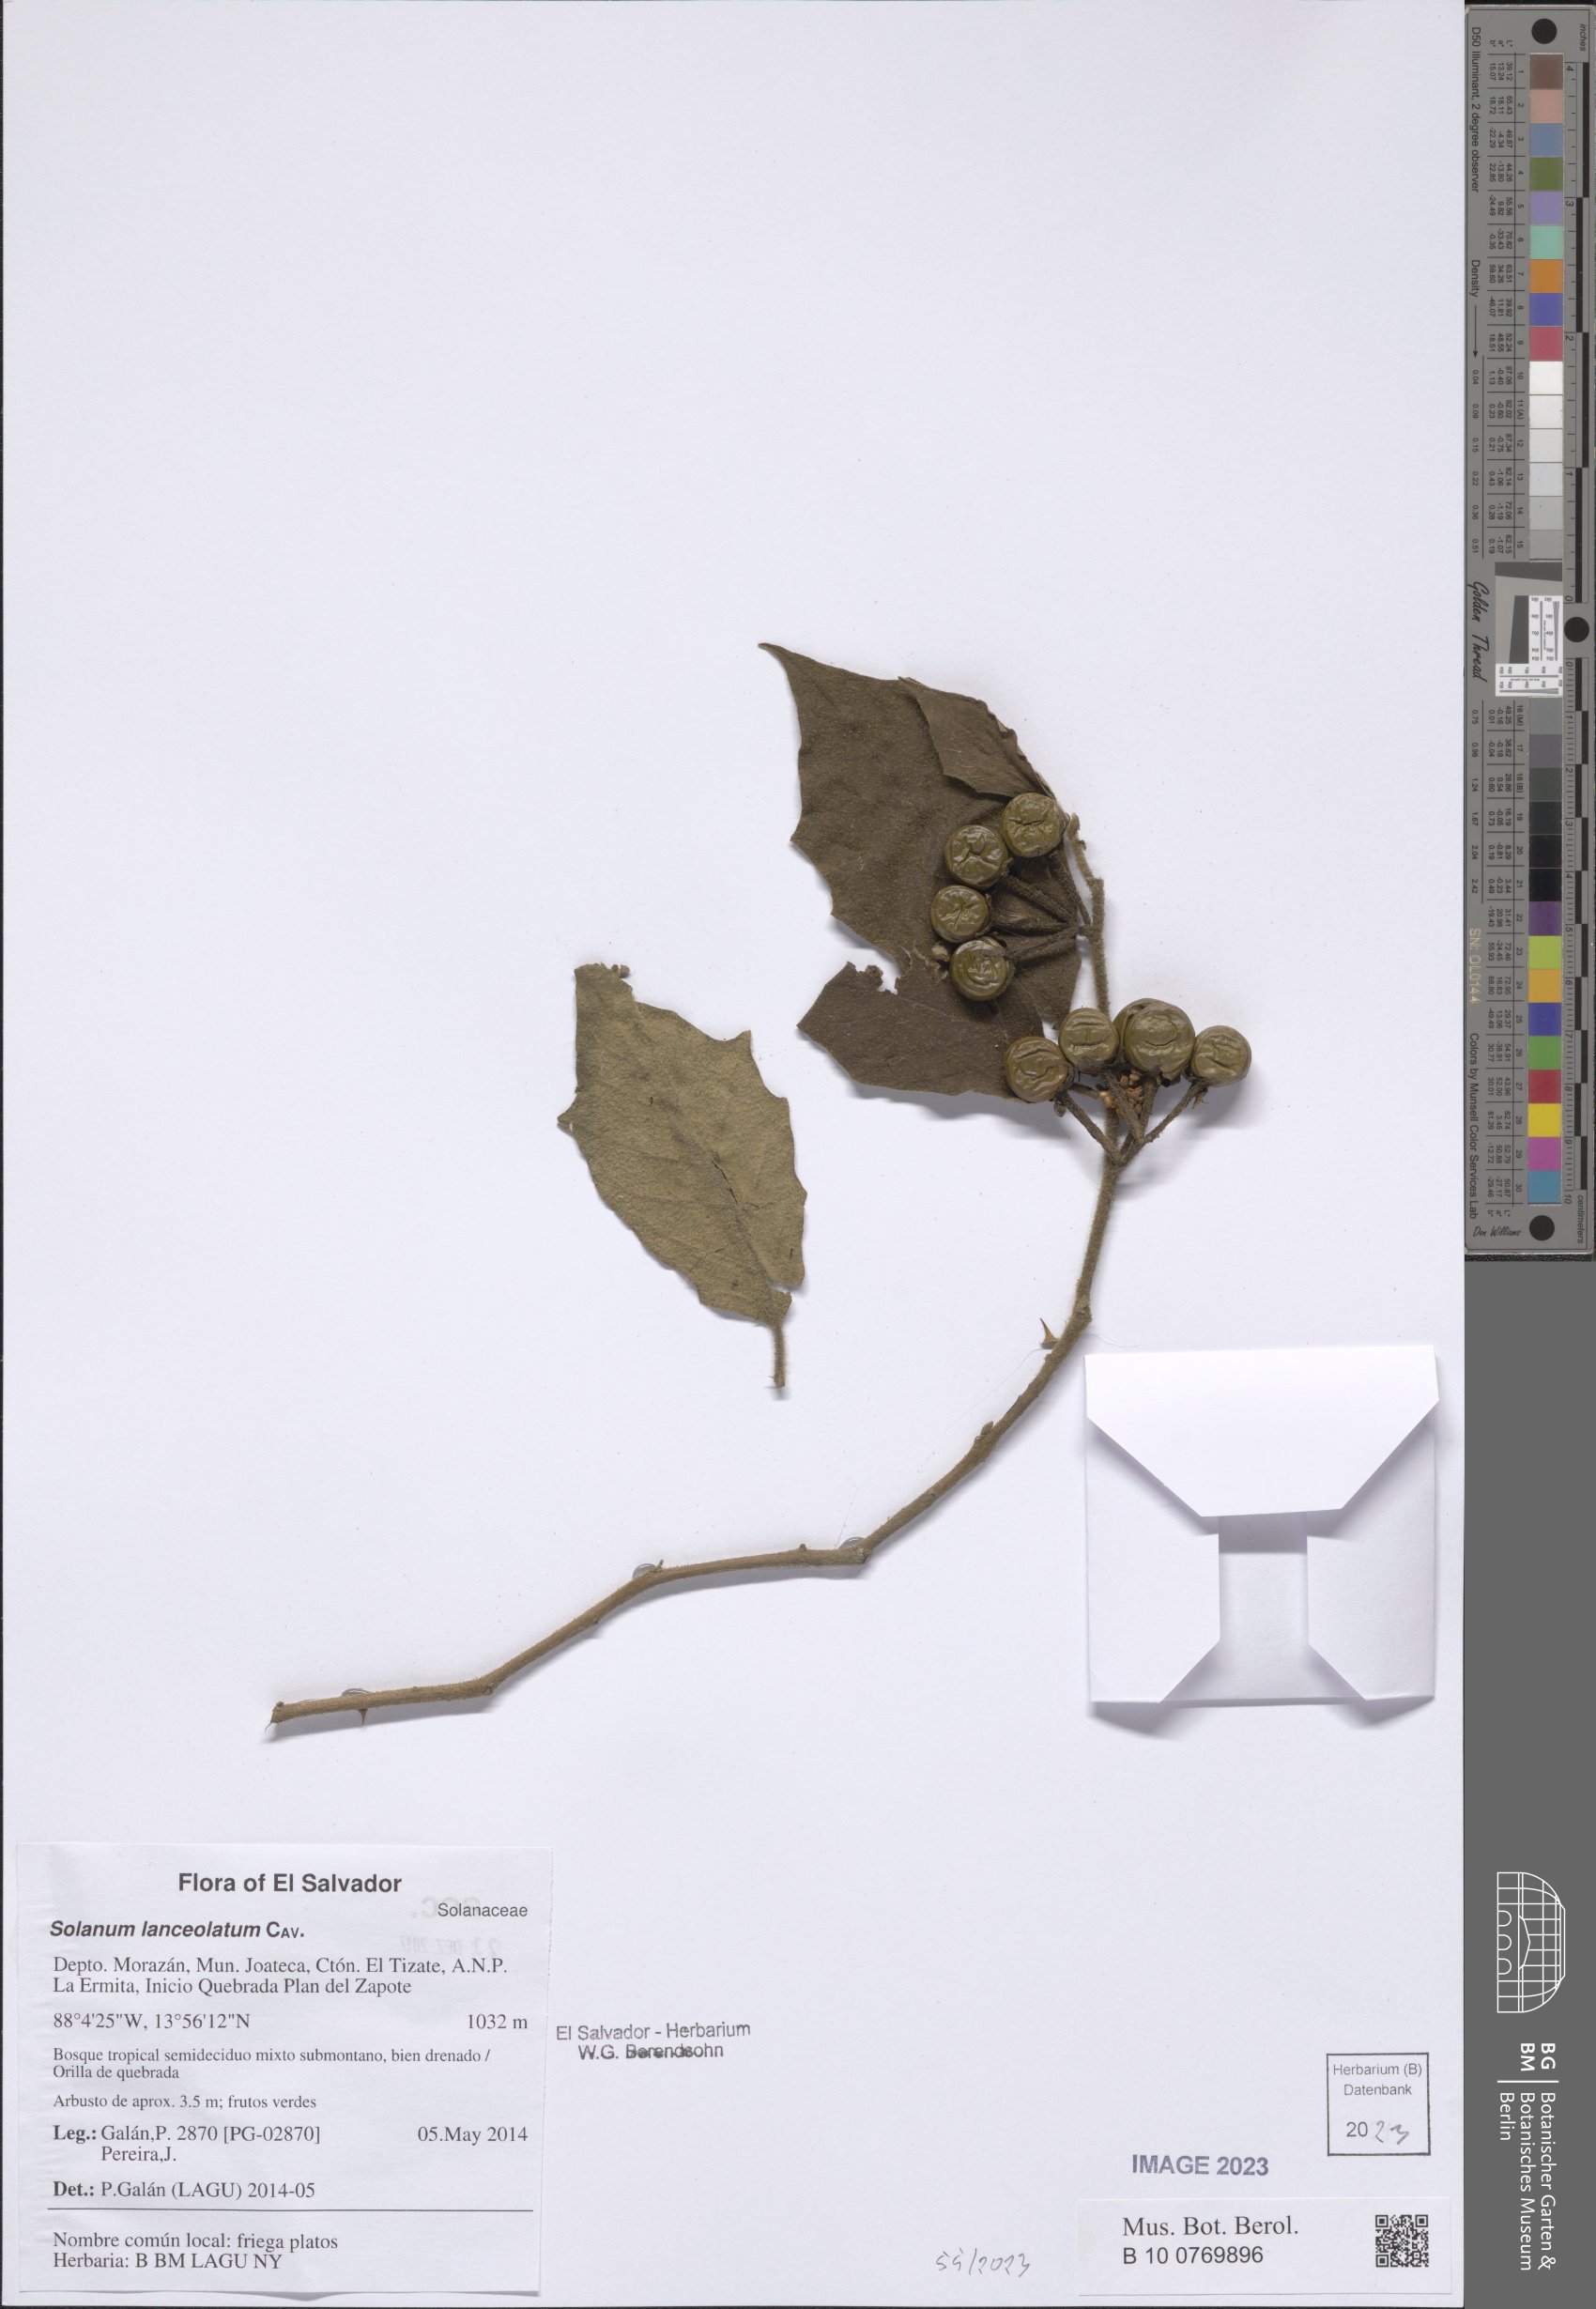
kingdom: Plantae
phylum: Tracheophyta
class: Magnoliopsida
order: Solanales
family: Solanaceae
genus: Solanum
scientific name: Solanum lanceolatum
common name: Orangeberry nightshade
